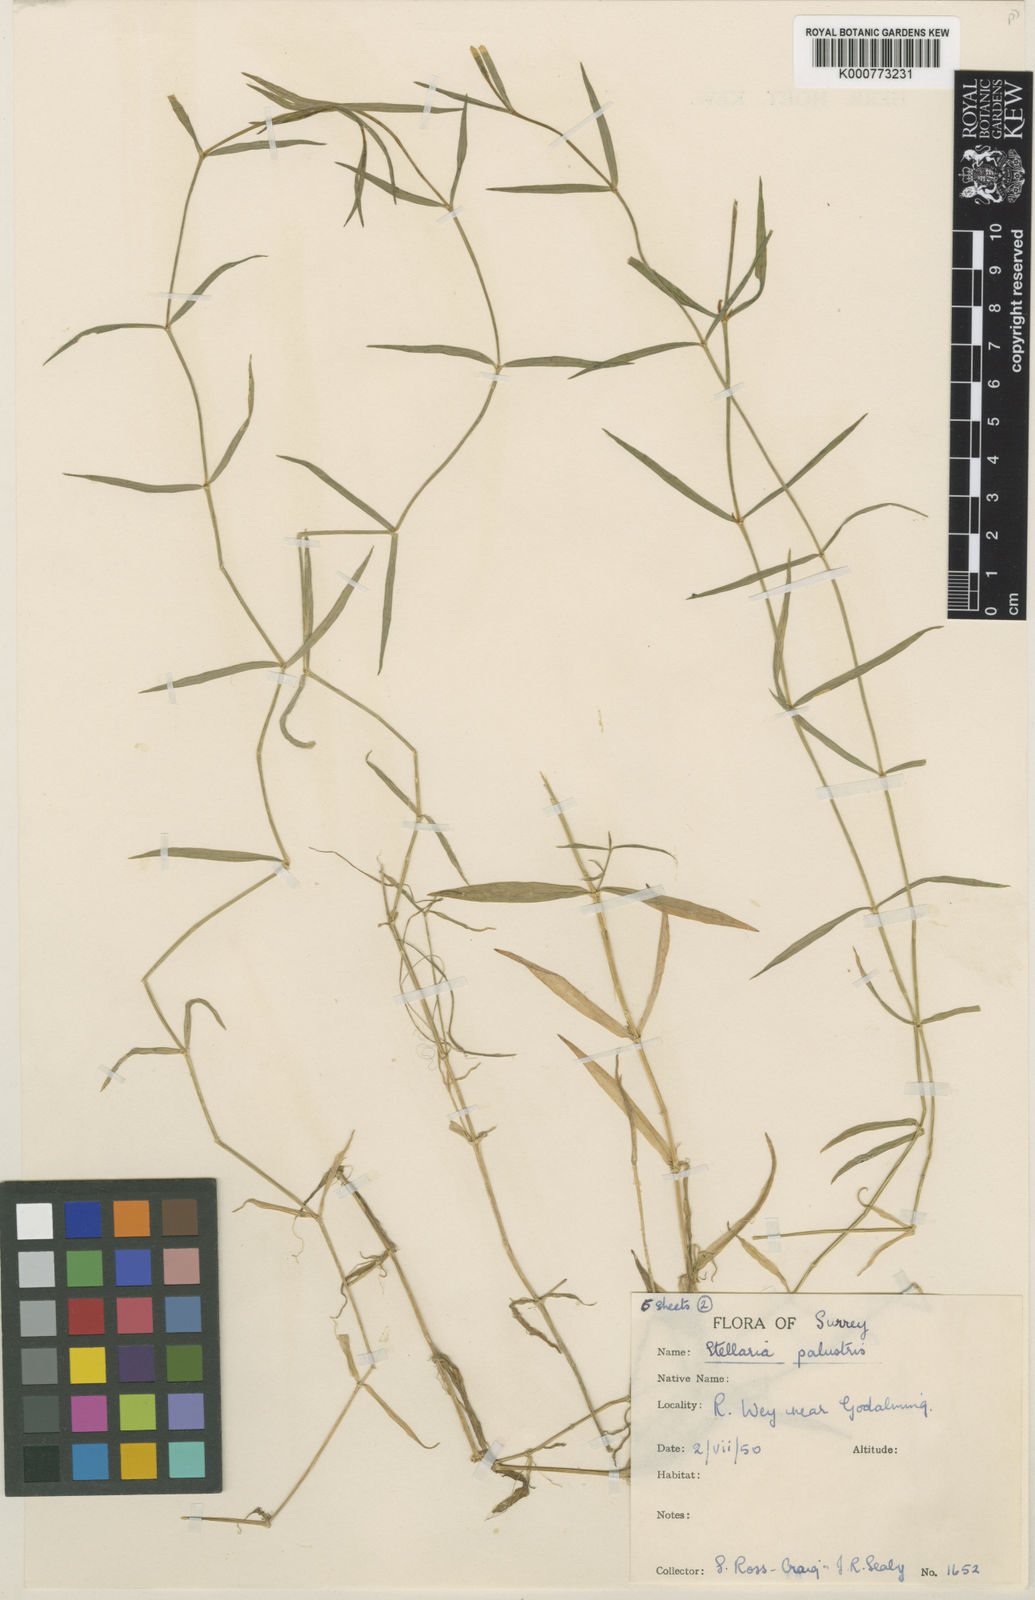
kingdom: Plantae
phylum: Tracheophyta
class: Magnoliopsida
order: Caryophyllales
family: Caryophyllaceae
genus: Stellaria
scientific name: Stellaria
